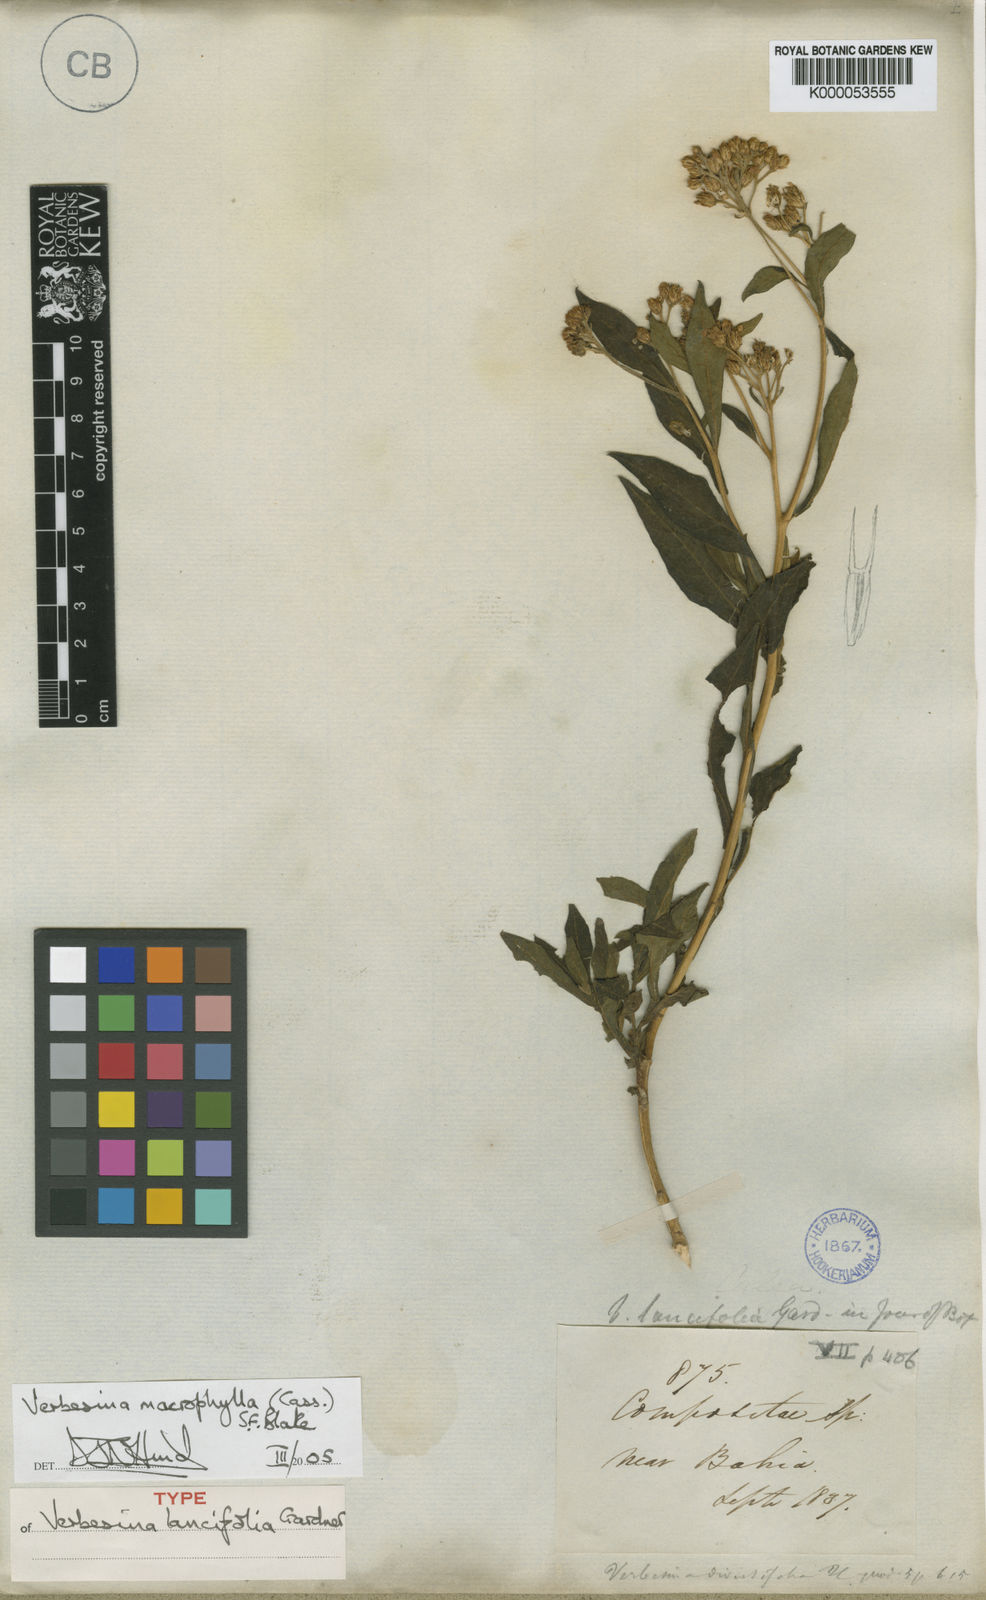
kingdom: Plantae
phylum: Tracheophyta
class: Magnoliopsida
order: Asterales
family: Asteraceae
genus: Verbesina
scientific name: Verbesina macrophylla
